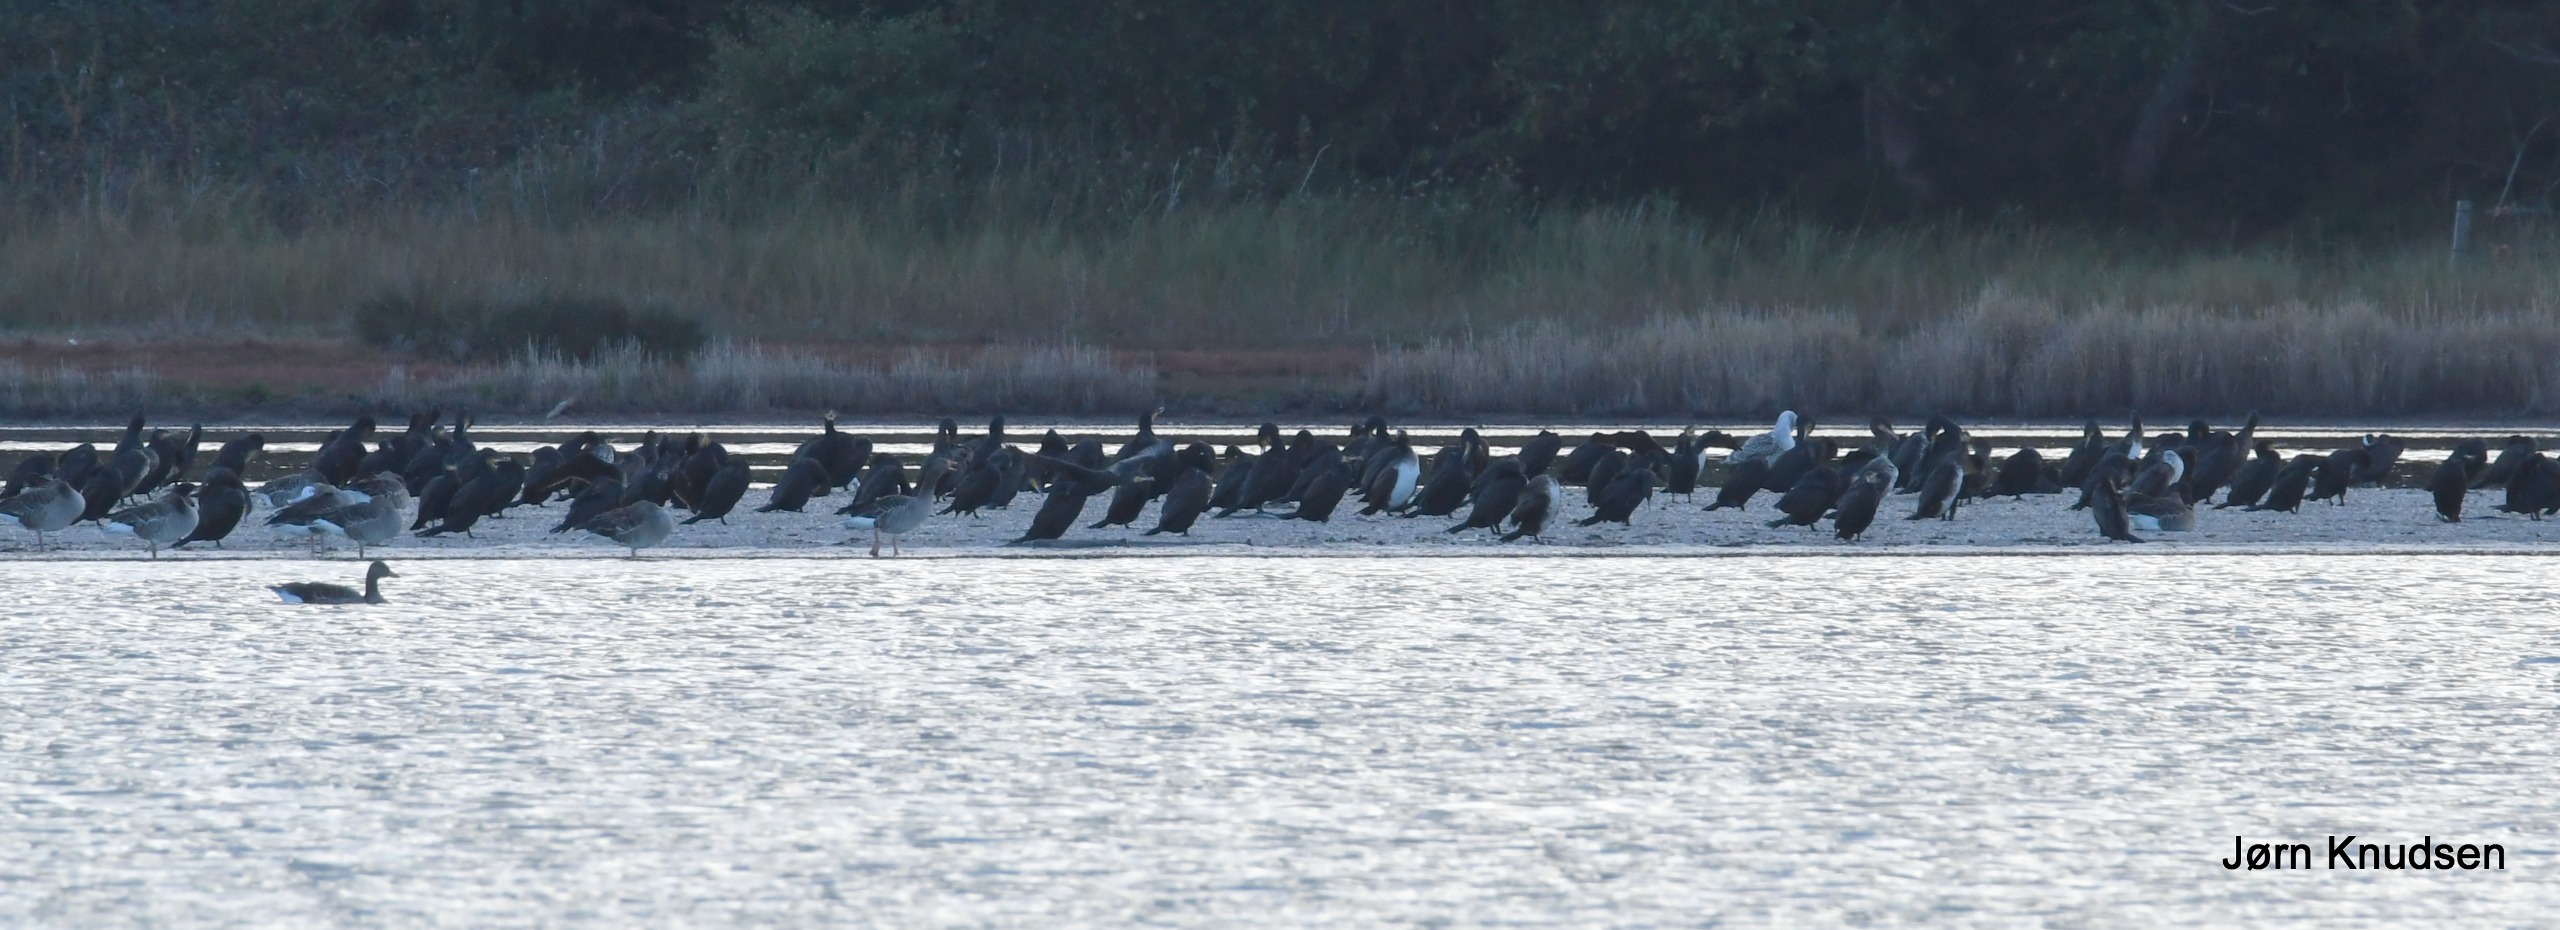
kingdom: Animalia
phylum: Chordata
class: Aves
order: Suliformes
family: Phalacrocoracidae
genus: Phalacrocorax
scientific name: Phalacrocorax carbo
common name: Skarv
